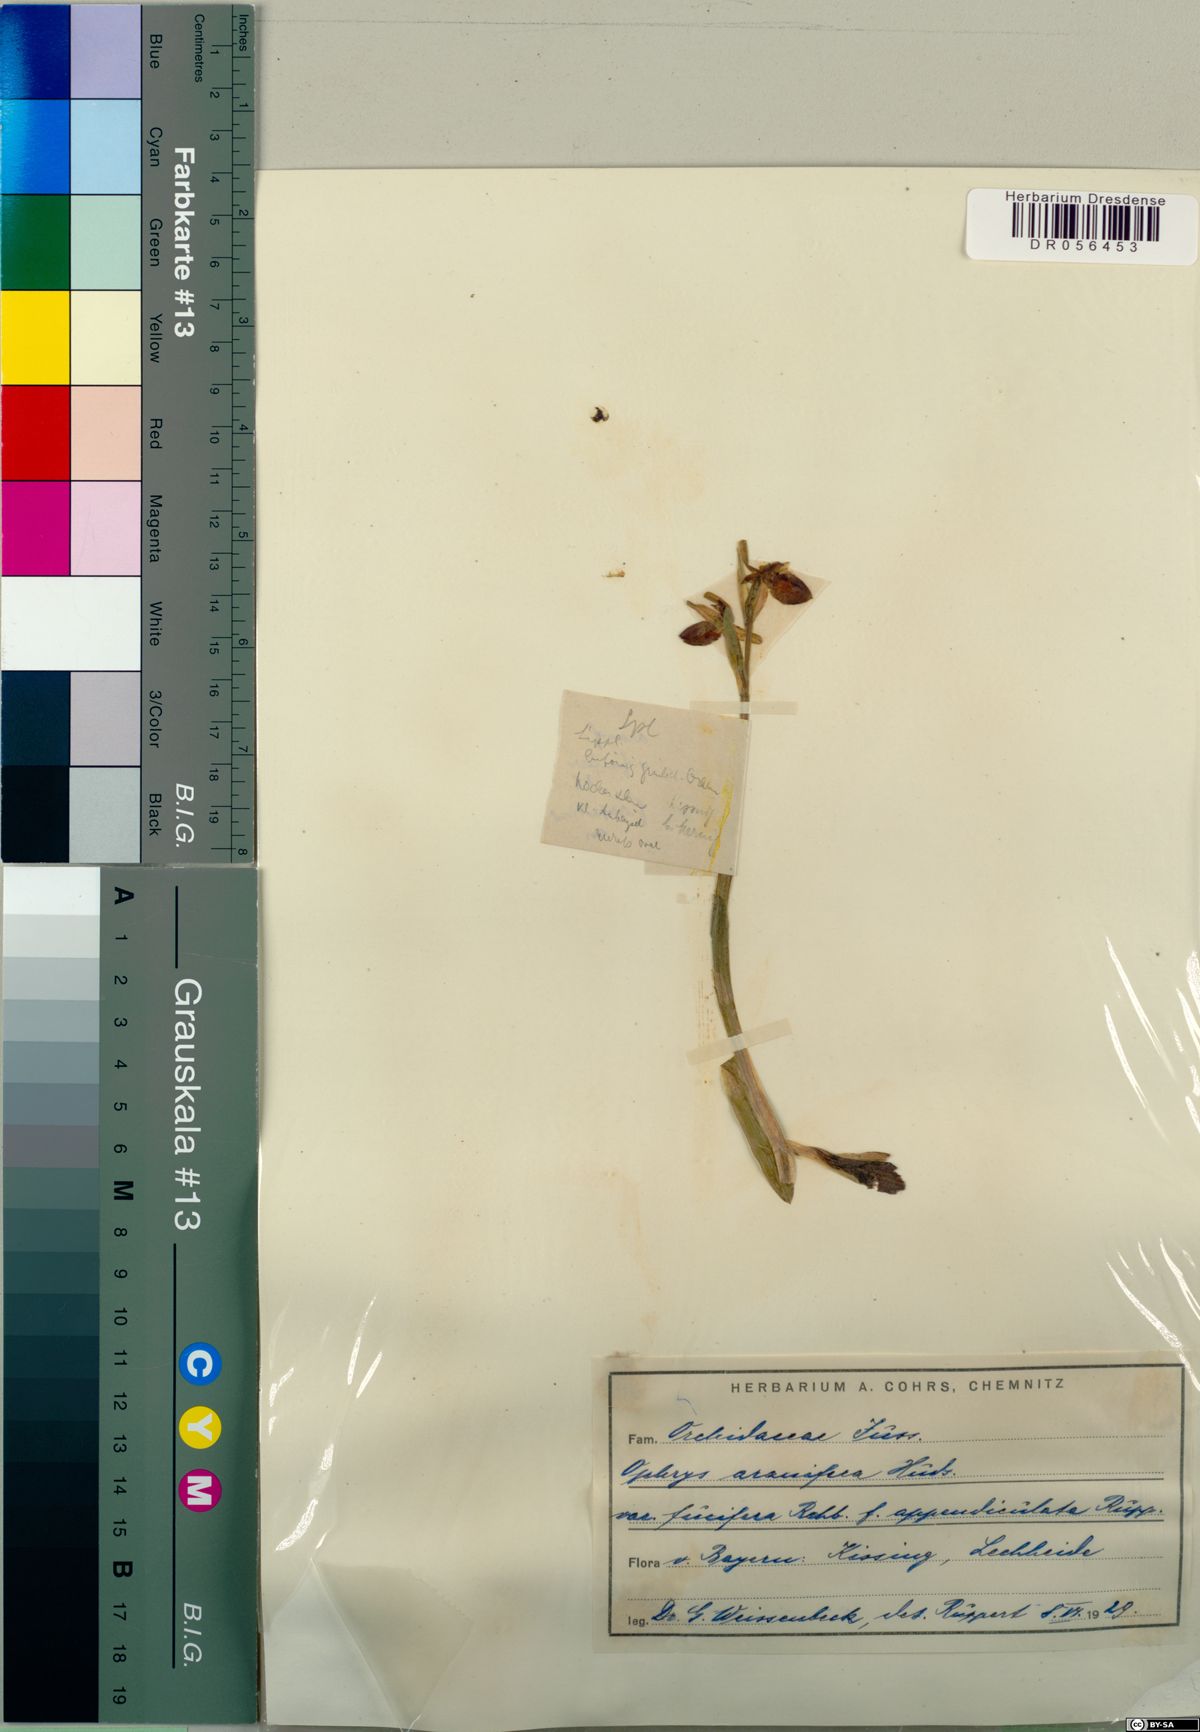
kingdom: Plantae
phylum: Tracheophyta
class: Liliopsida
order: Asparagales
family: Orchidaceae
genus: Ophrys
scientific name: Ophrys sphegodes
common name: Early spider-orchid
